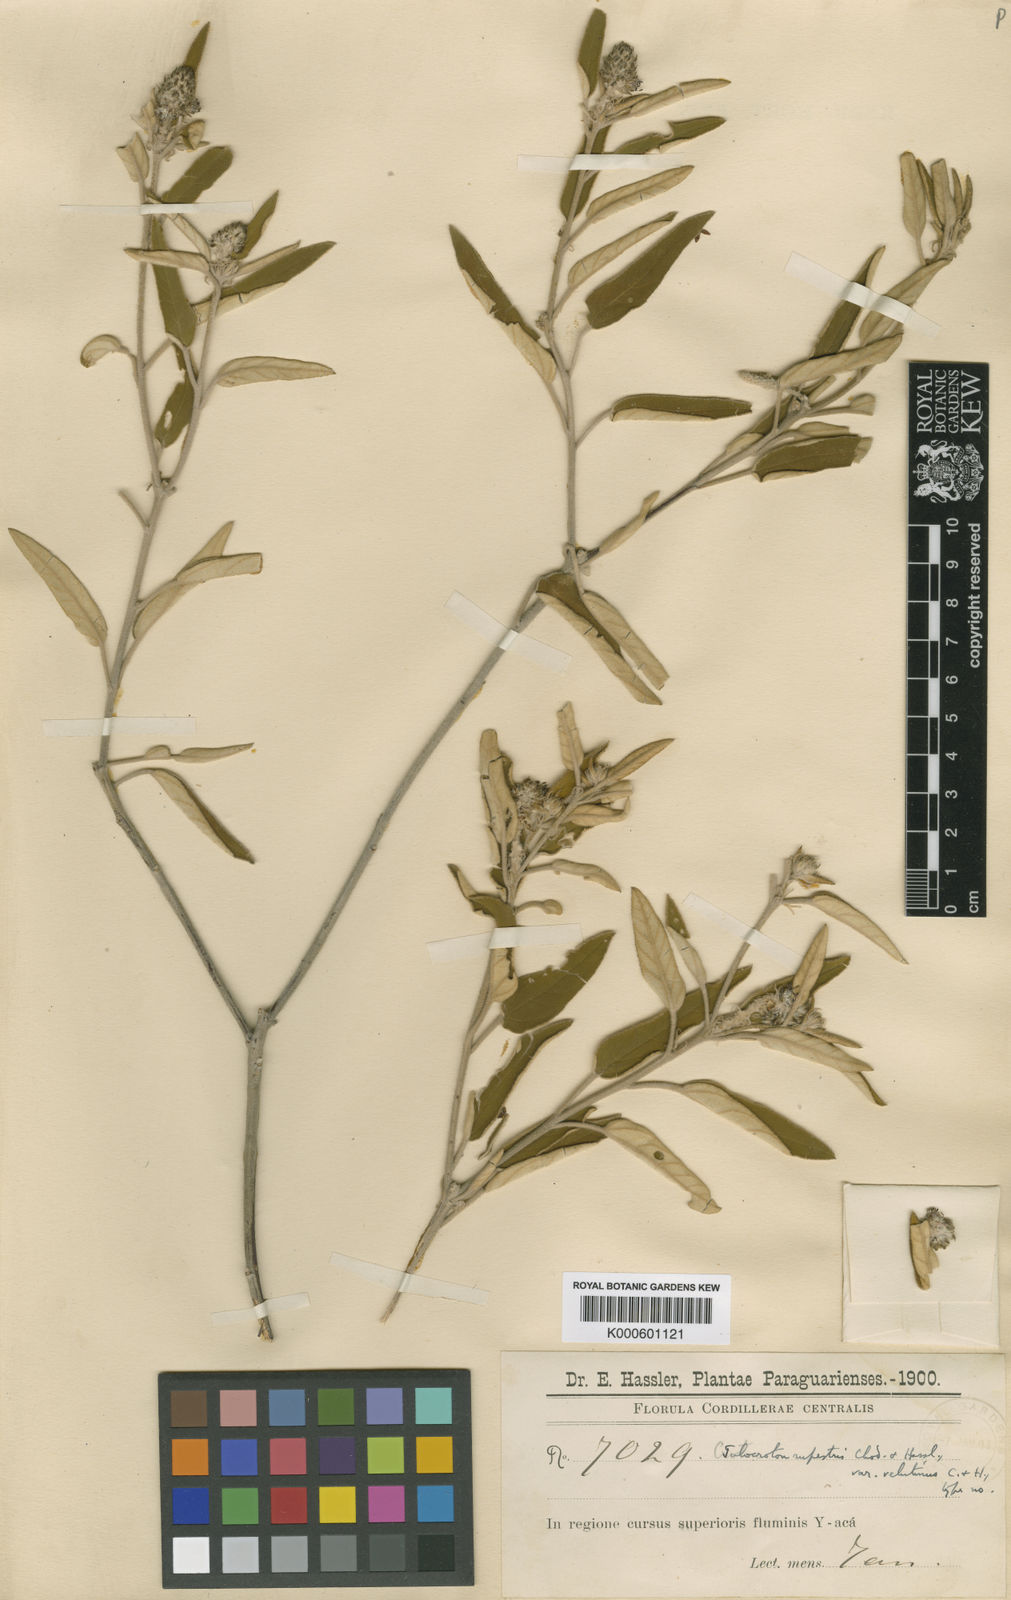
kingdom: Plantae
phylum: Tracheophyta
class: Magnoliopsida
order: Malpighiales
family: Euphorbiaceae
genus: Croton
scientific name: Croton rupestris
